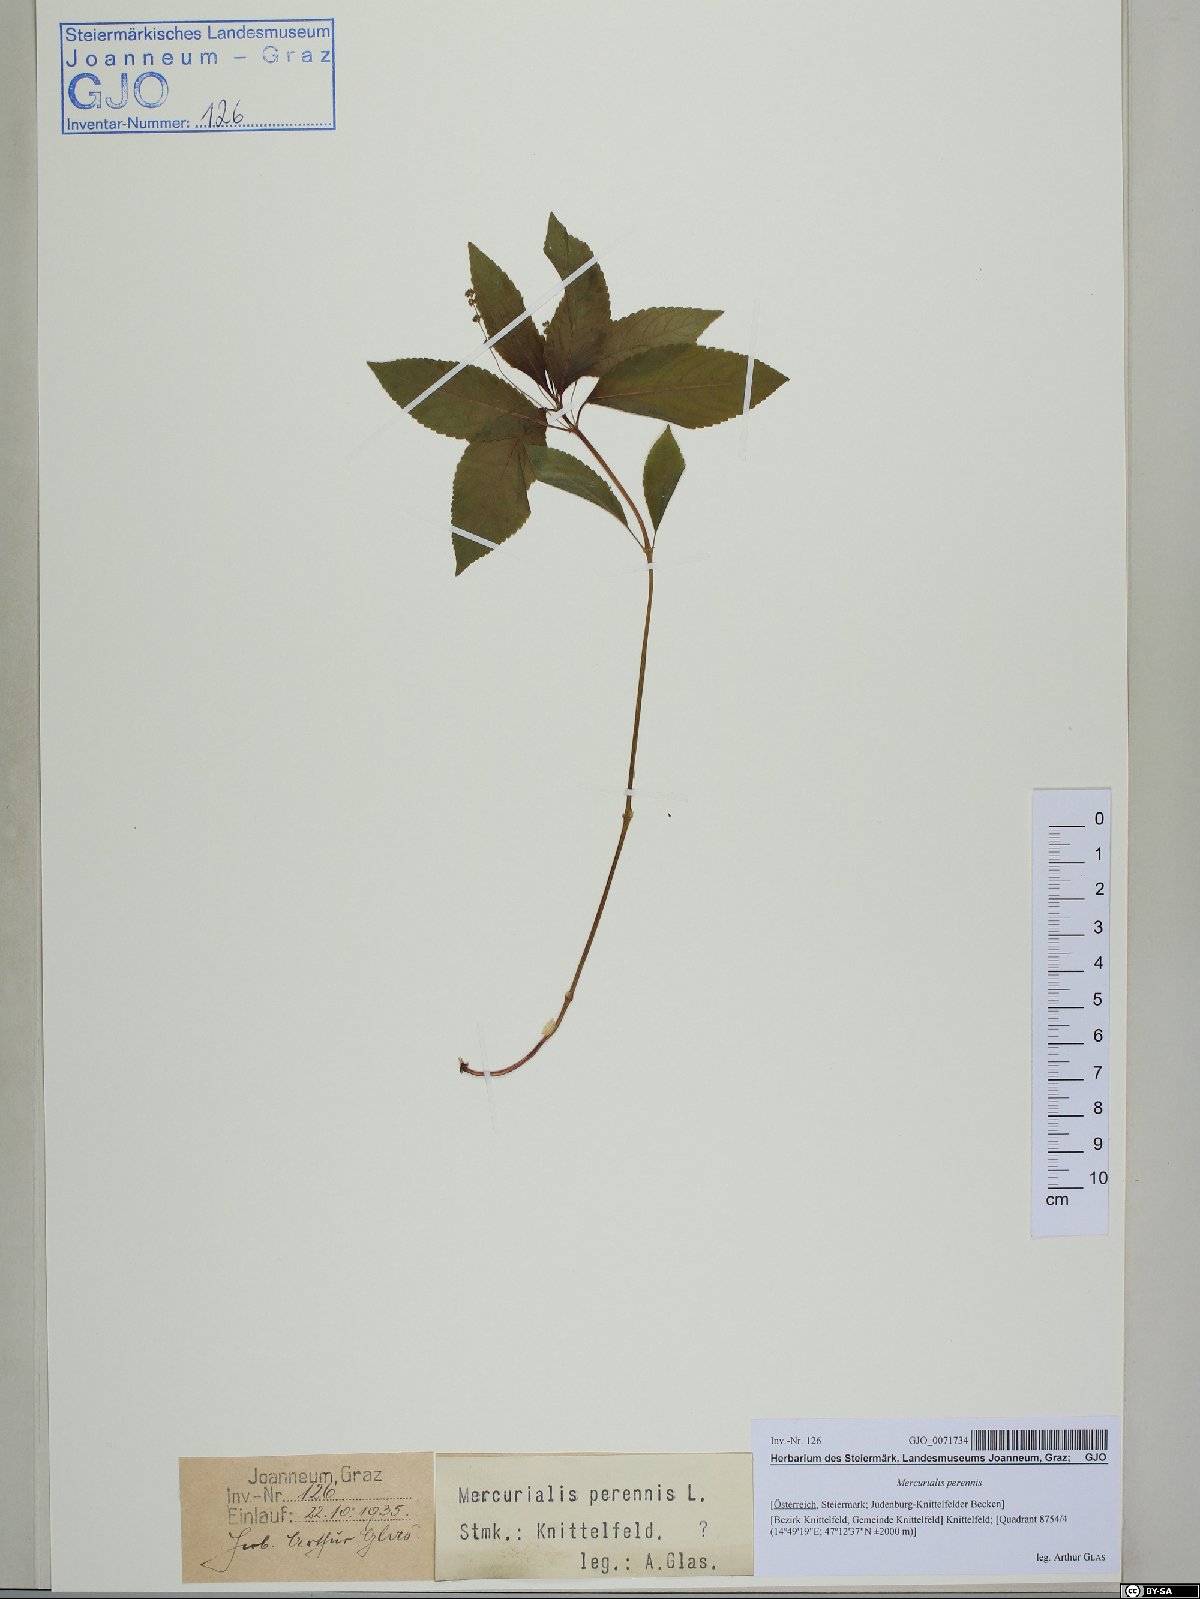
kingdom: Plantae
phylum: Tracheophyta
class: Magnoliopsida
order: Malpighiales
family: Euphorbiaceae
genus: Mercurialis
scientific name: Mercurialis perennis
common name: Dog mercury
